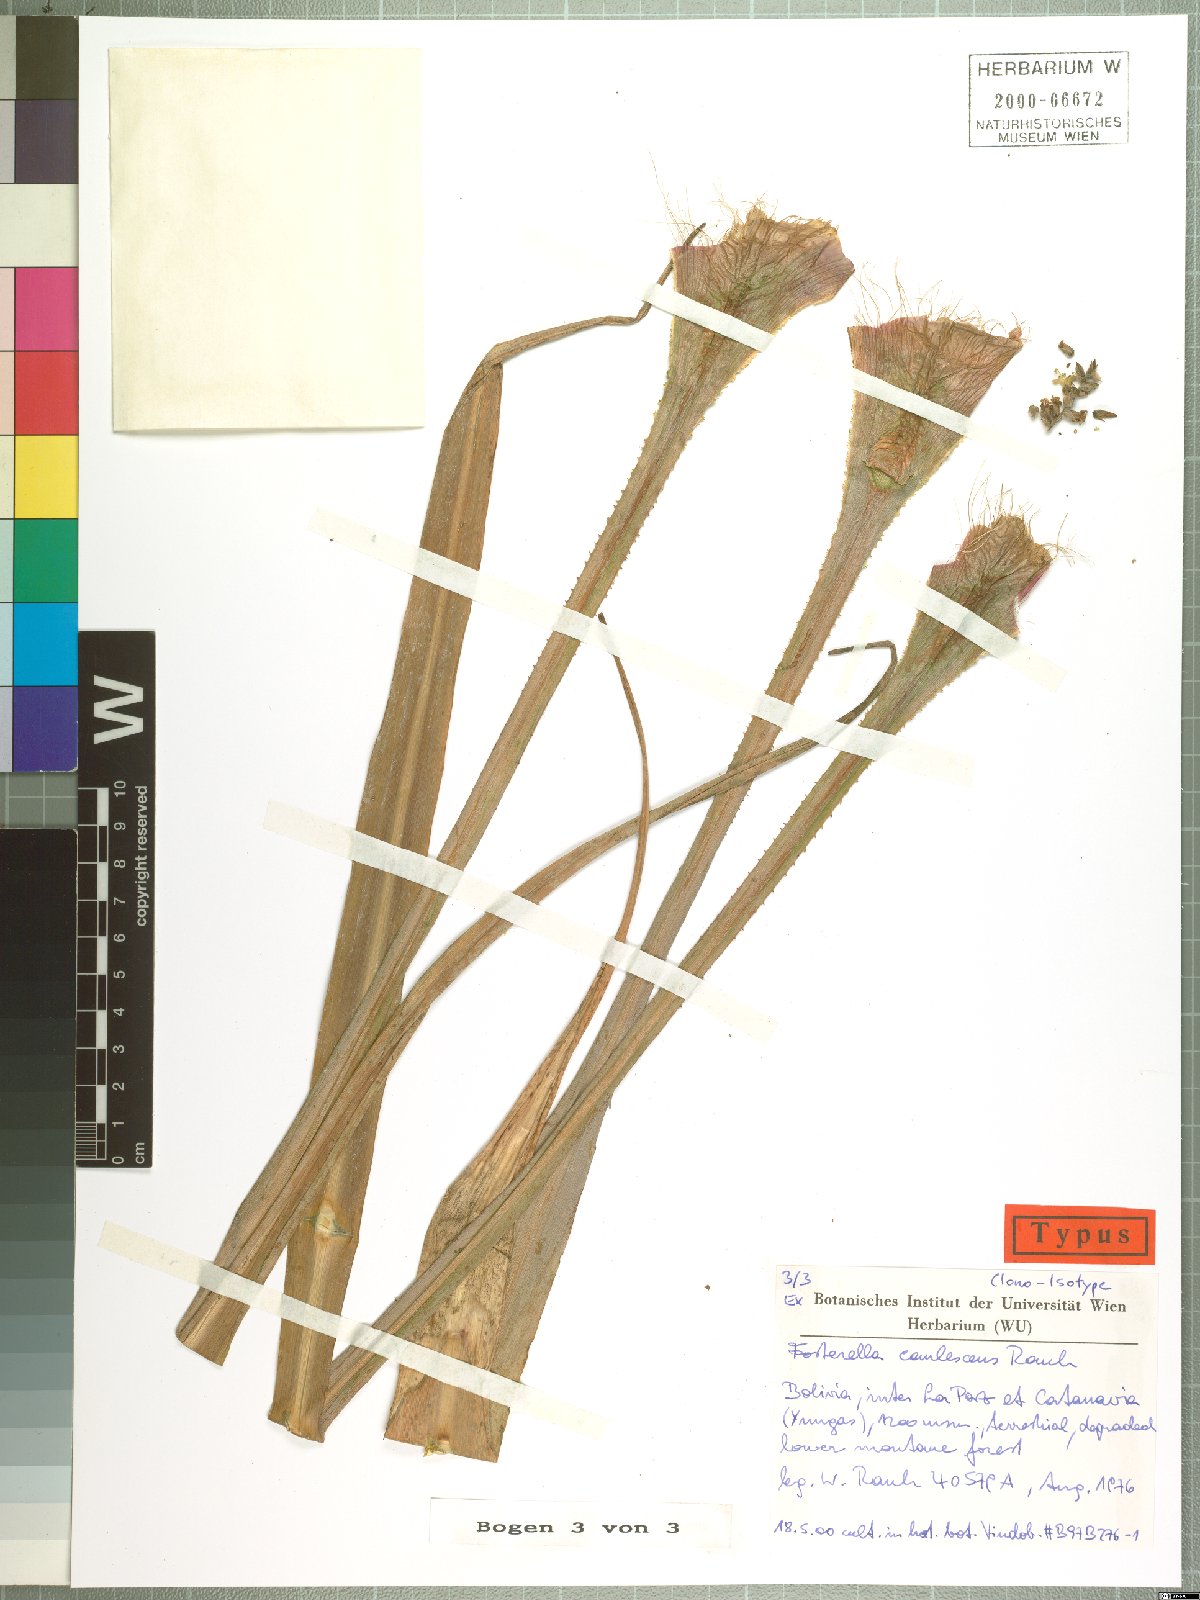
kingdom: Plantae
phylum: Tracheophyta
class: Liliopsida
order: Poales
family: Bromeliaceae
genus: Fosterella
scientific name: Fosterella caulescens
